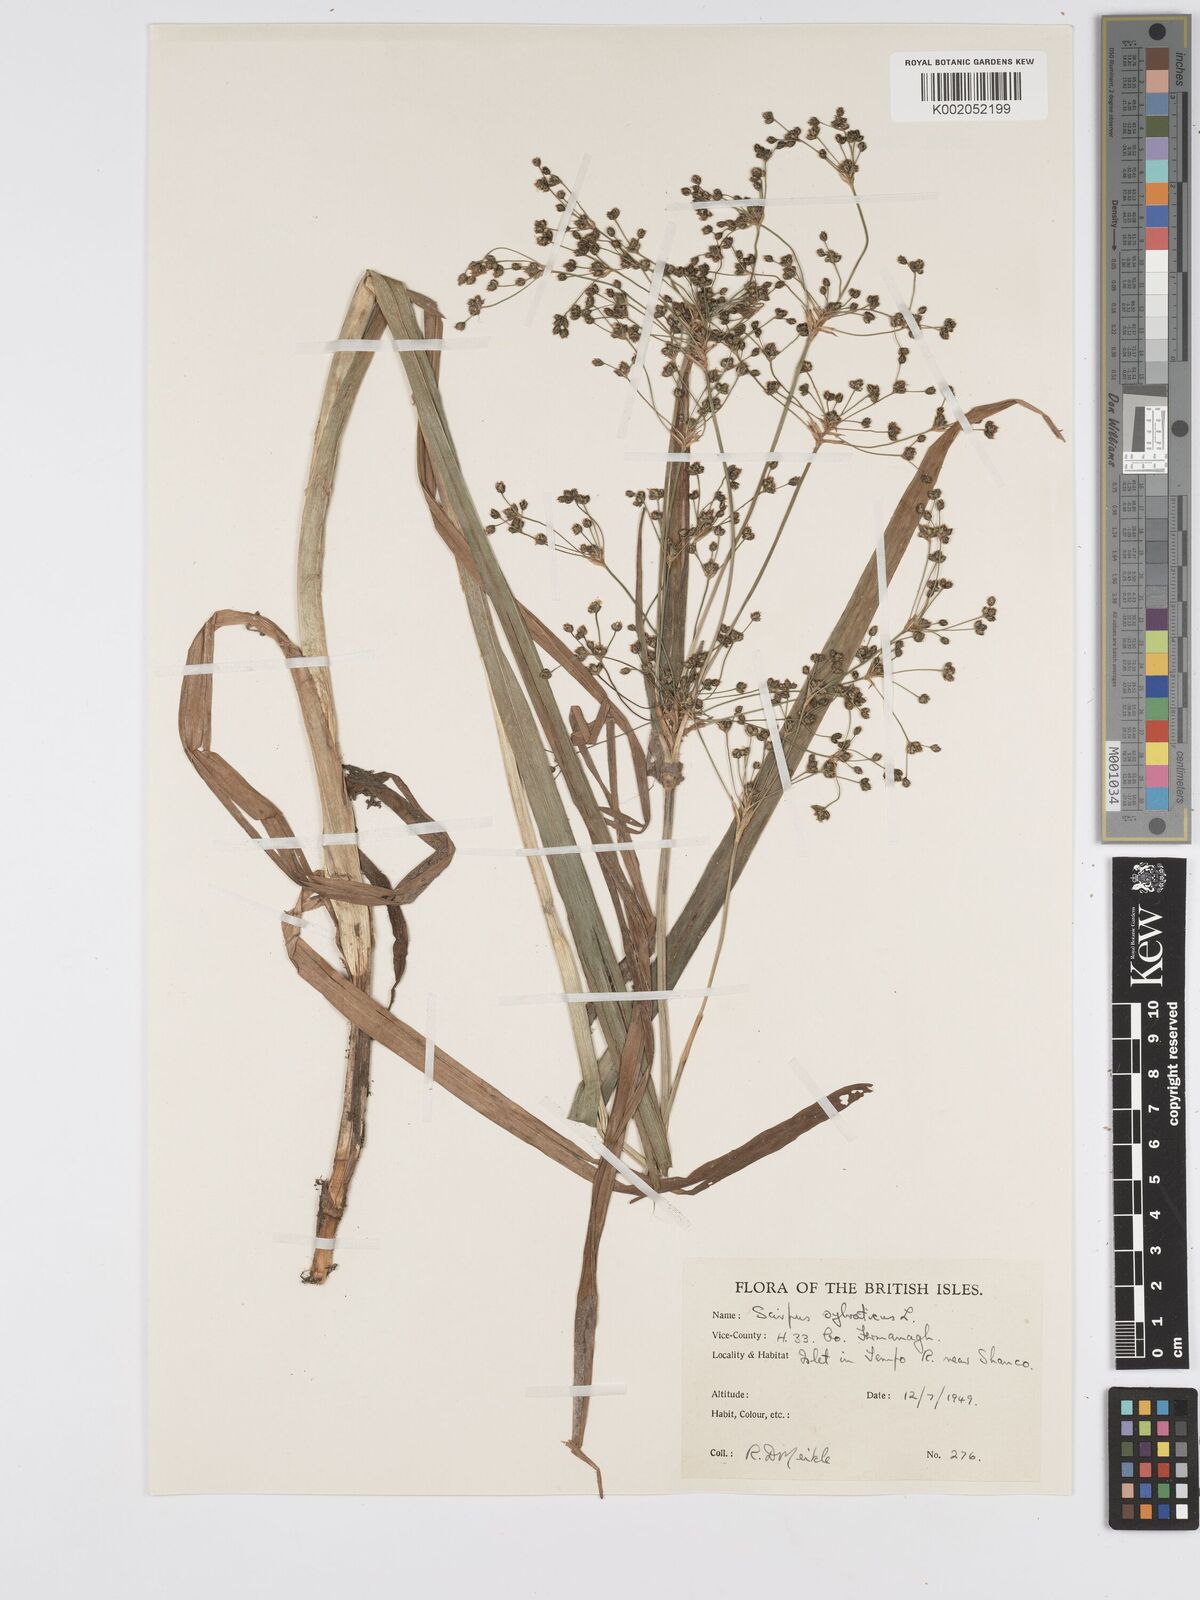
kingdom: Plantae
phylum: Tracheophyta
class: Liliopsida
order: Poales
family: Cyperaceae
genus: Scirpus
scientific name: Scirpus sylvaticus
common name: Wood club-rush
